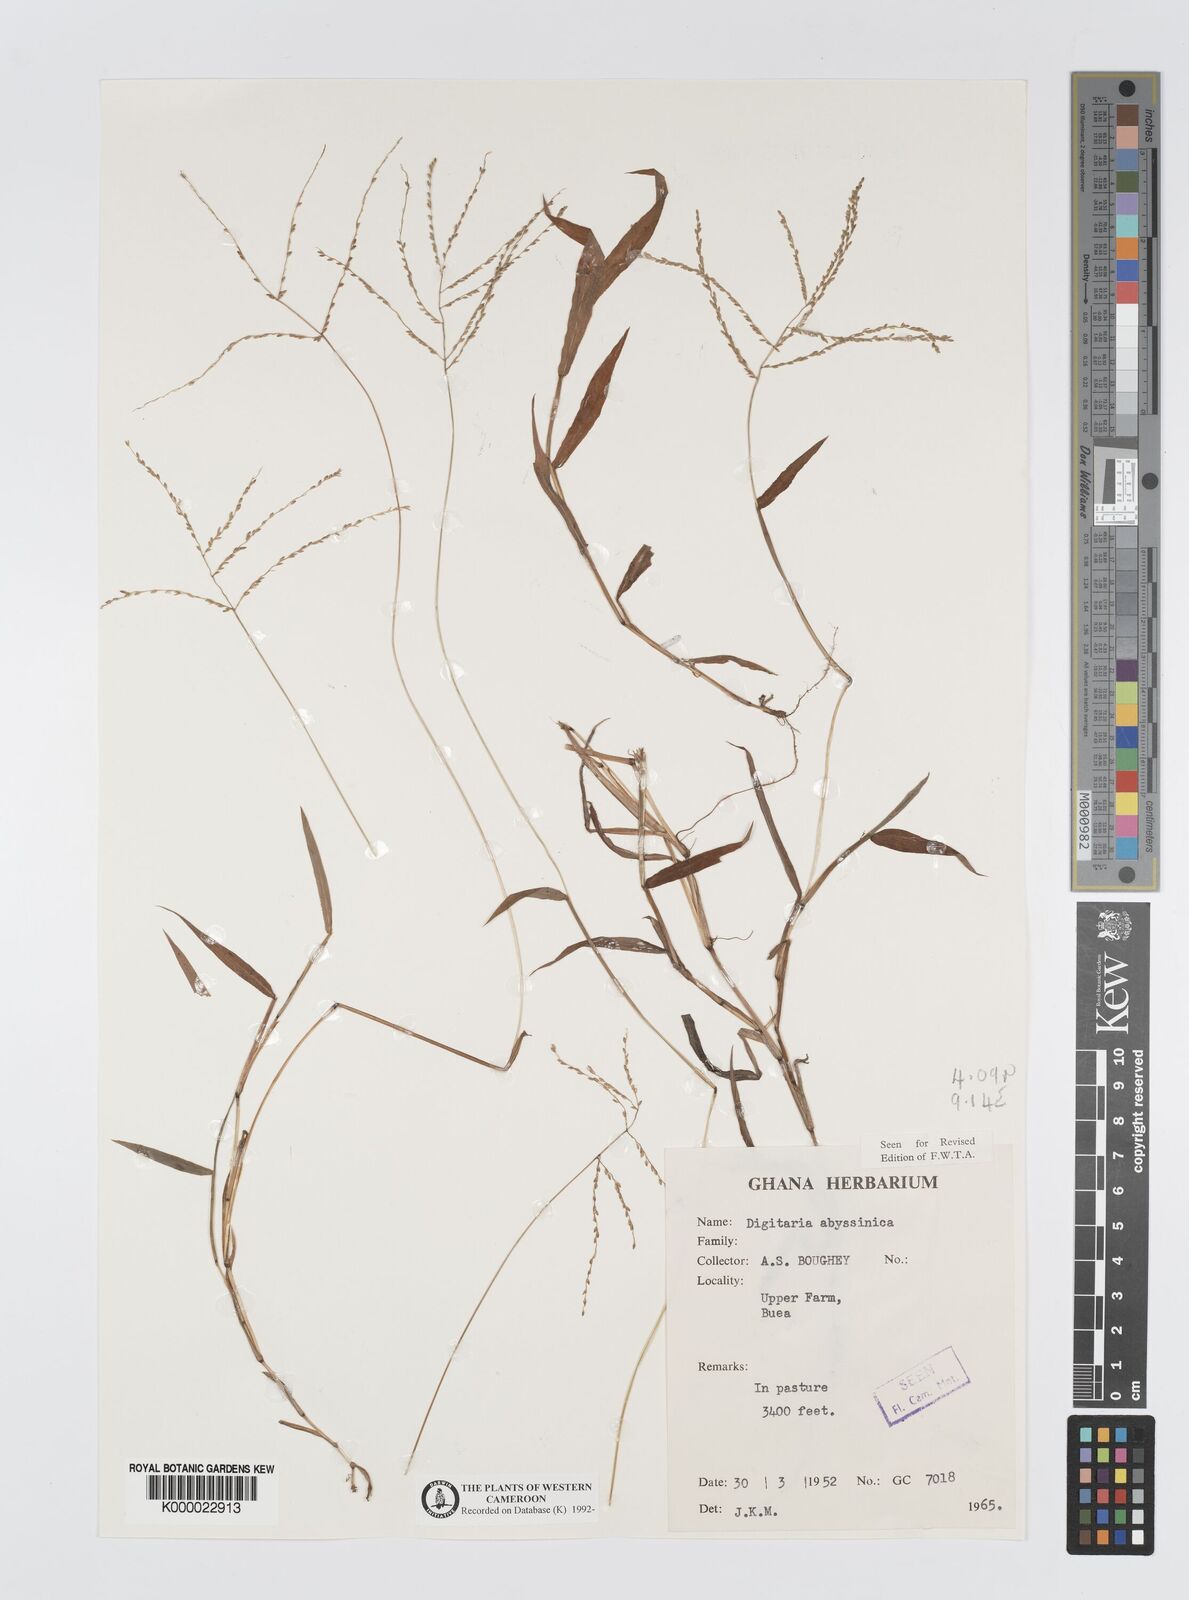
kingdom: Plantae
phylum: Tracheophyta
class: Liliopsida
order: Poales
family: Poaceae
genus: Digitaria
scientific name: Digitaria abyssinica
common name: African couchgrass
